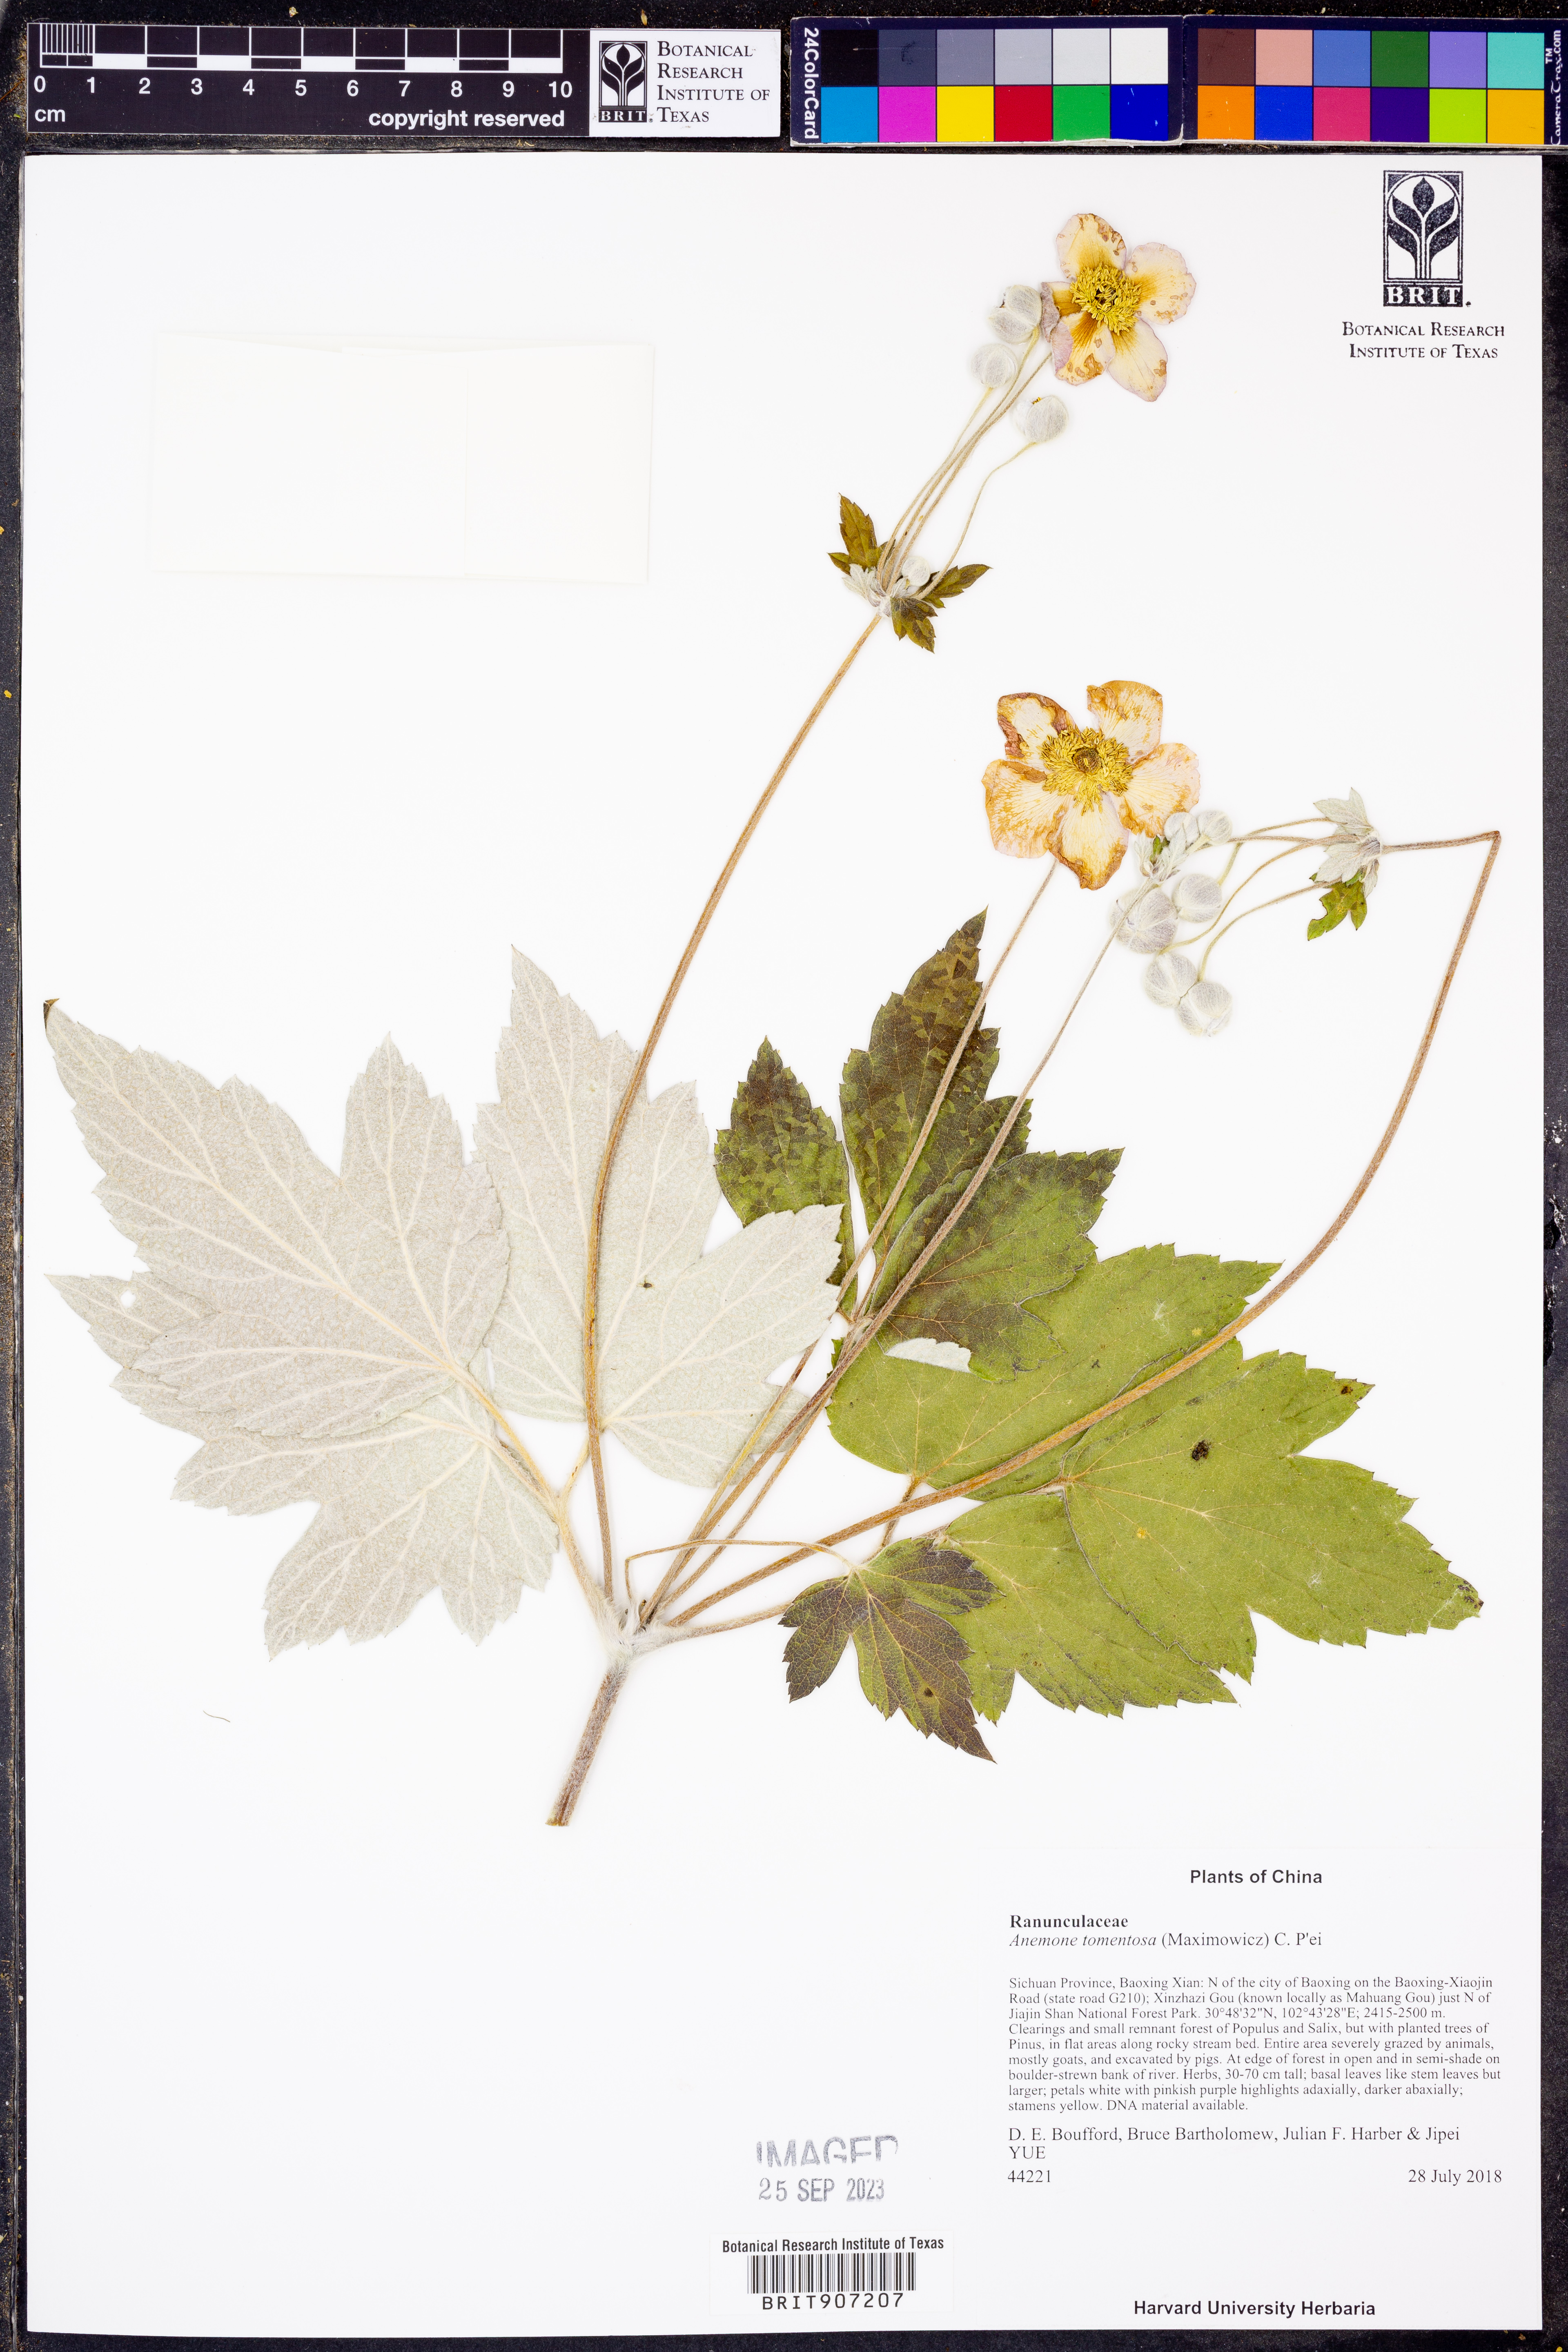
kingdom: Plantae
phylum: Tracheophyta
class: Magnoliopsida
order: Ranunculales
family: Ranunculaceae
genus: Eriocapitella
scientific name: Eriocapitella tomentosa
